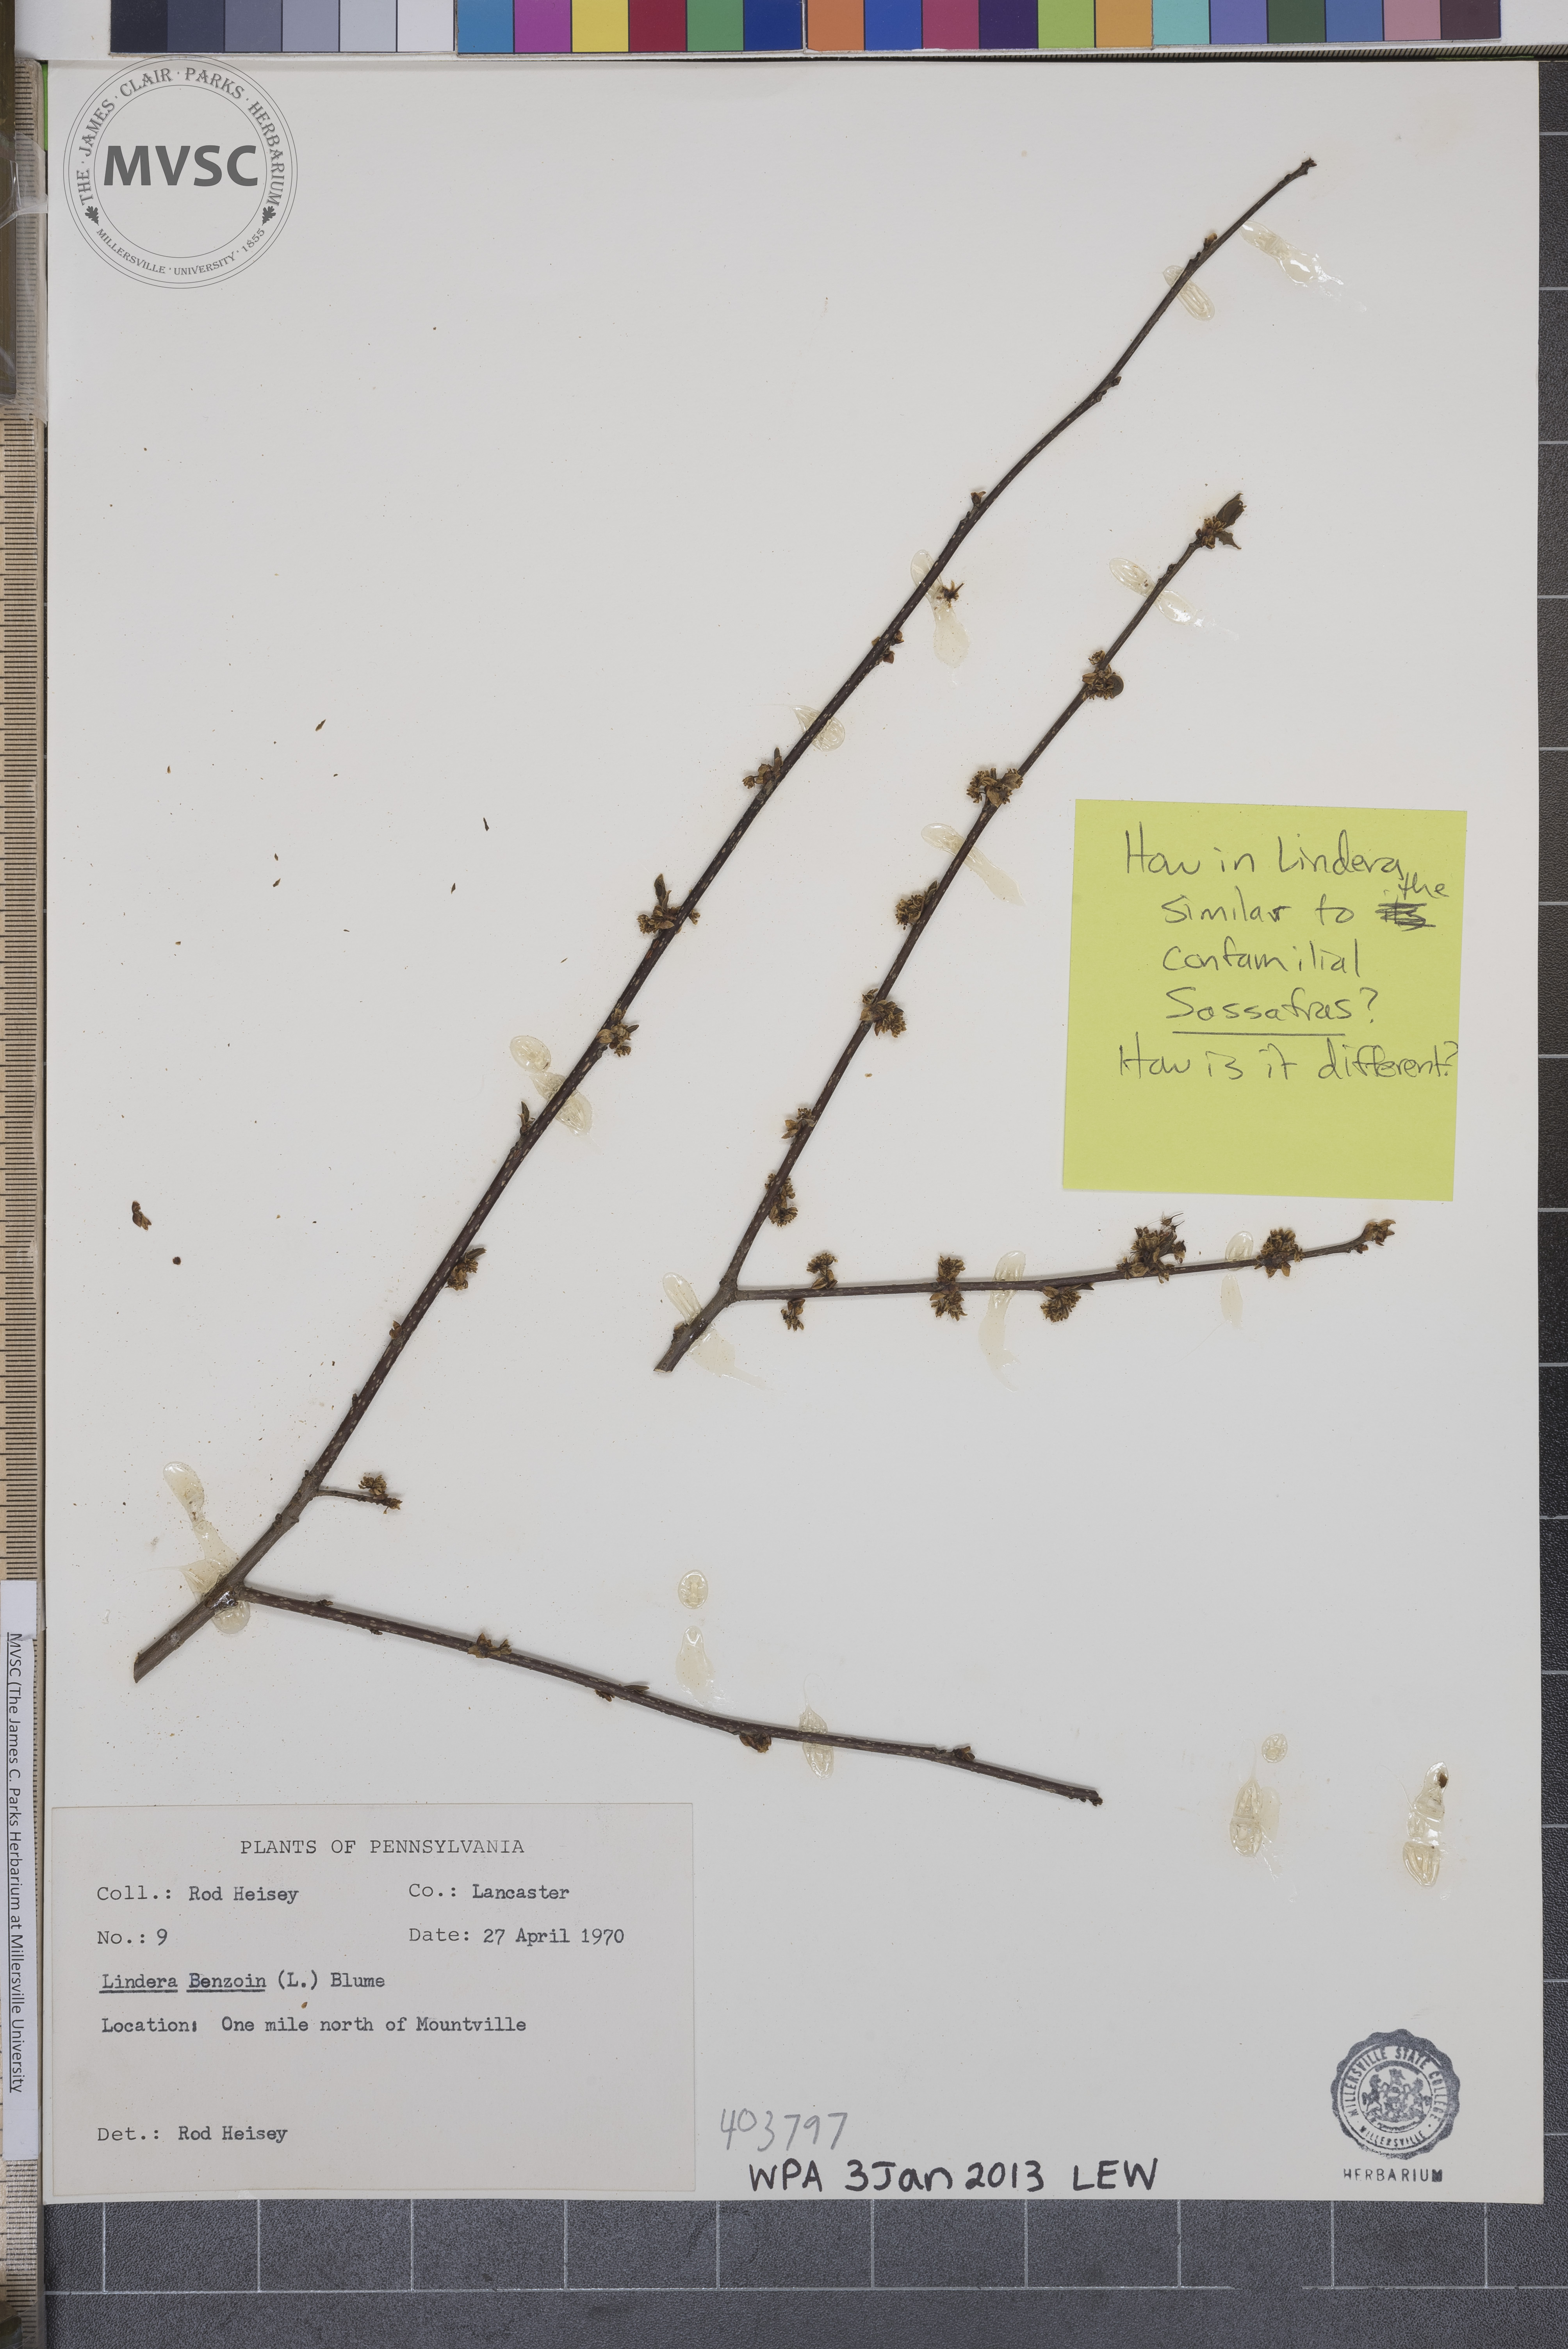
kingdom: Plantae
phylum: Tracheophyta
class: Magnoliopsida
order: Laurales
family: Lauraceae
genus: Lindera
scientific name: Lindera benzoin
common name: Spicebush
